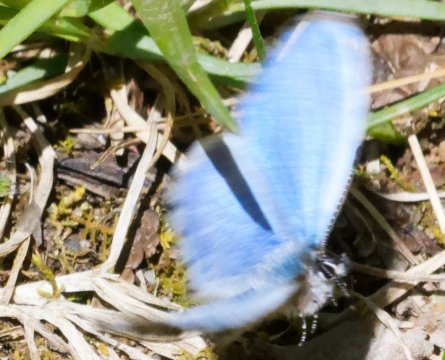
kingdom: Animalia
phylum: Arthropoda
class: Insecta
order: Lepidoptera
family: Lycaenidae
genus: Celastrina
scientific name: Celastrina lucia
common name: Northern Spring Azure
